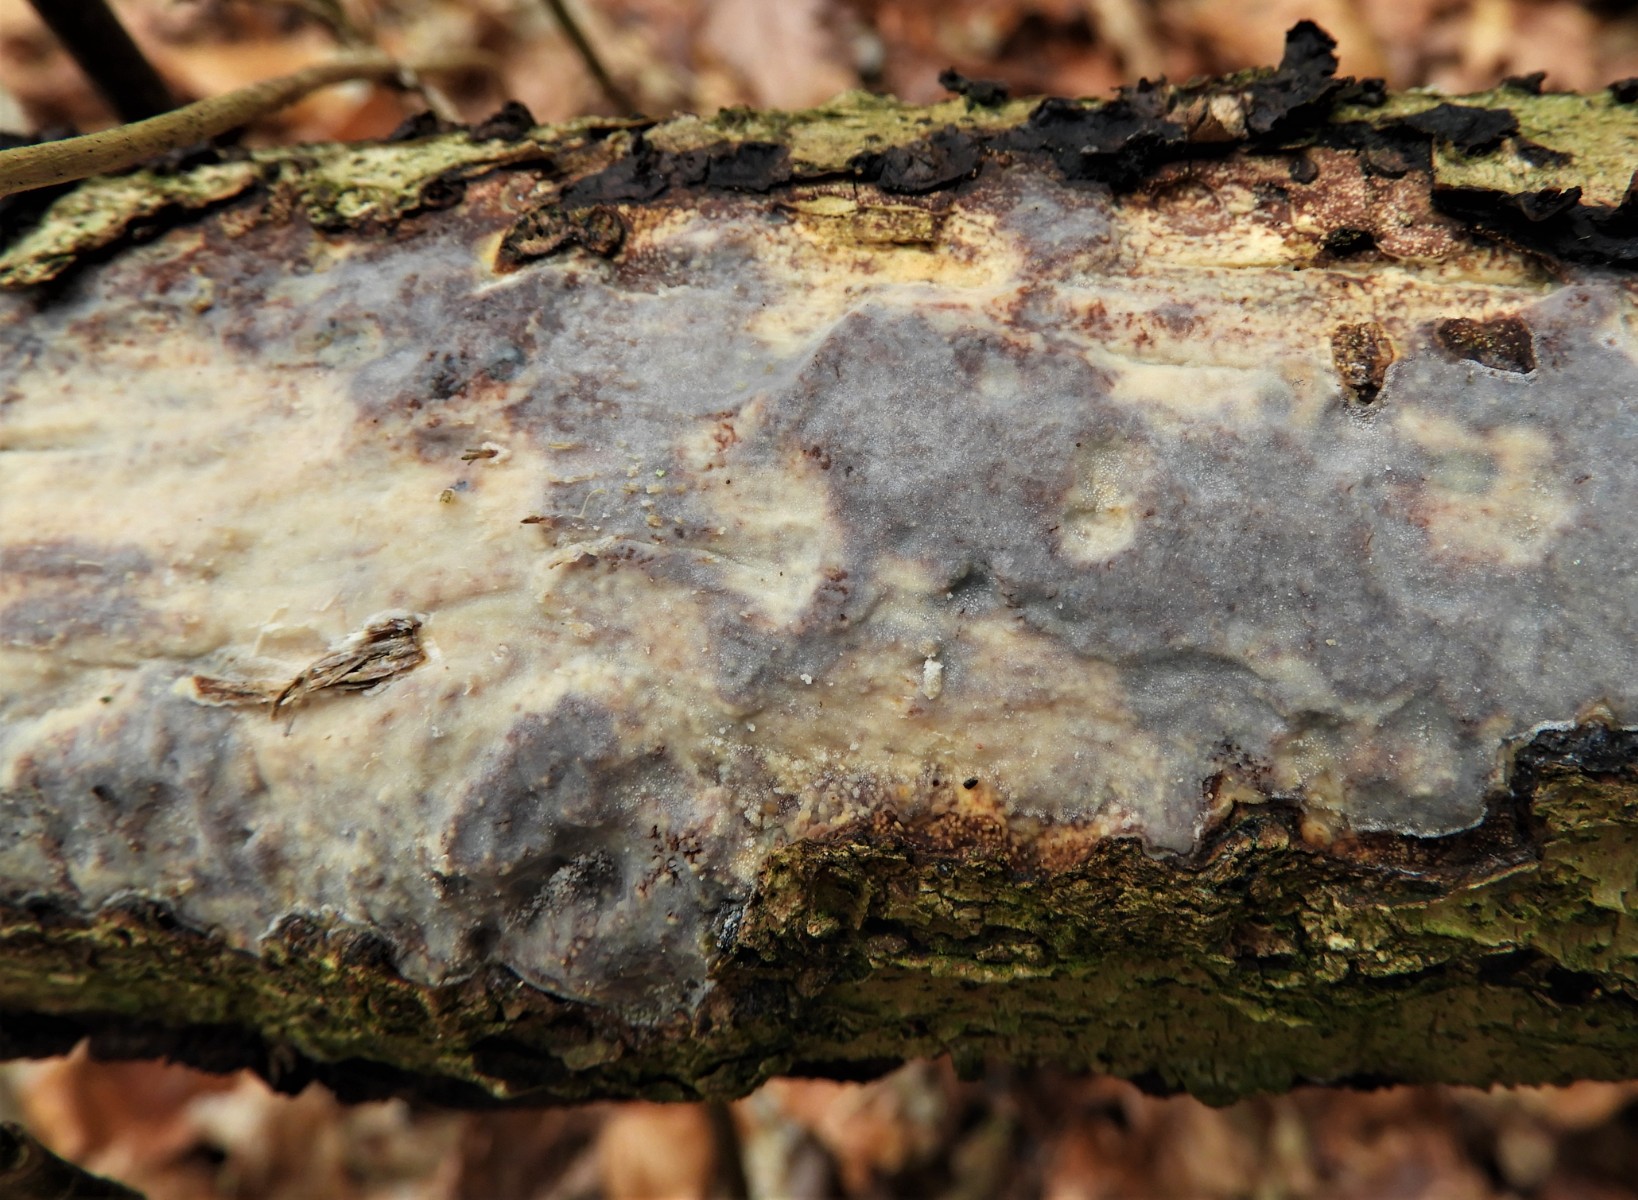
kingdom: Fungi
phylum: Basidiomycota
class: Agaricomycetes
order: Corticiales
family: Vuilleminiaceae
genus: Vuilleminia
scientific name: Vuilleminia comedens
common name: almindelig barksprænger
